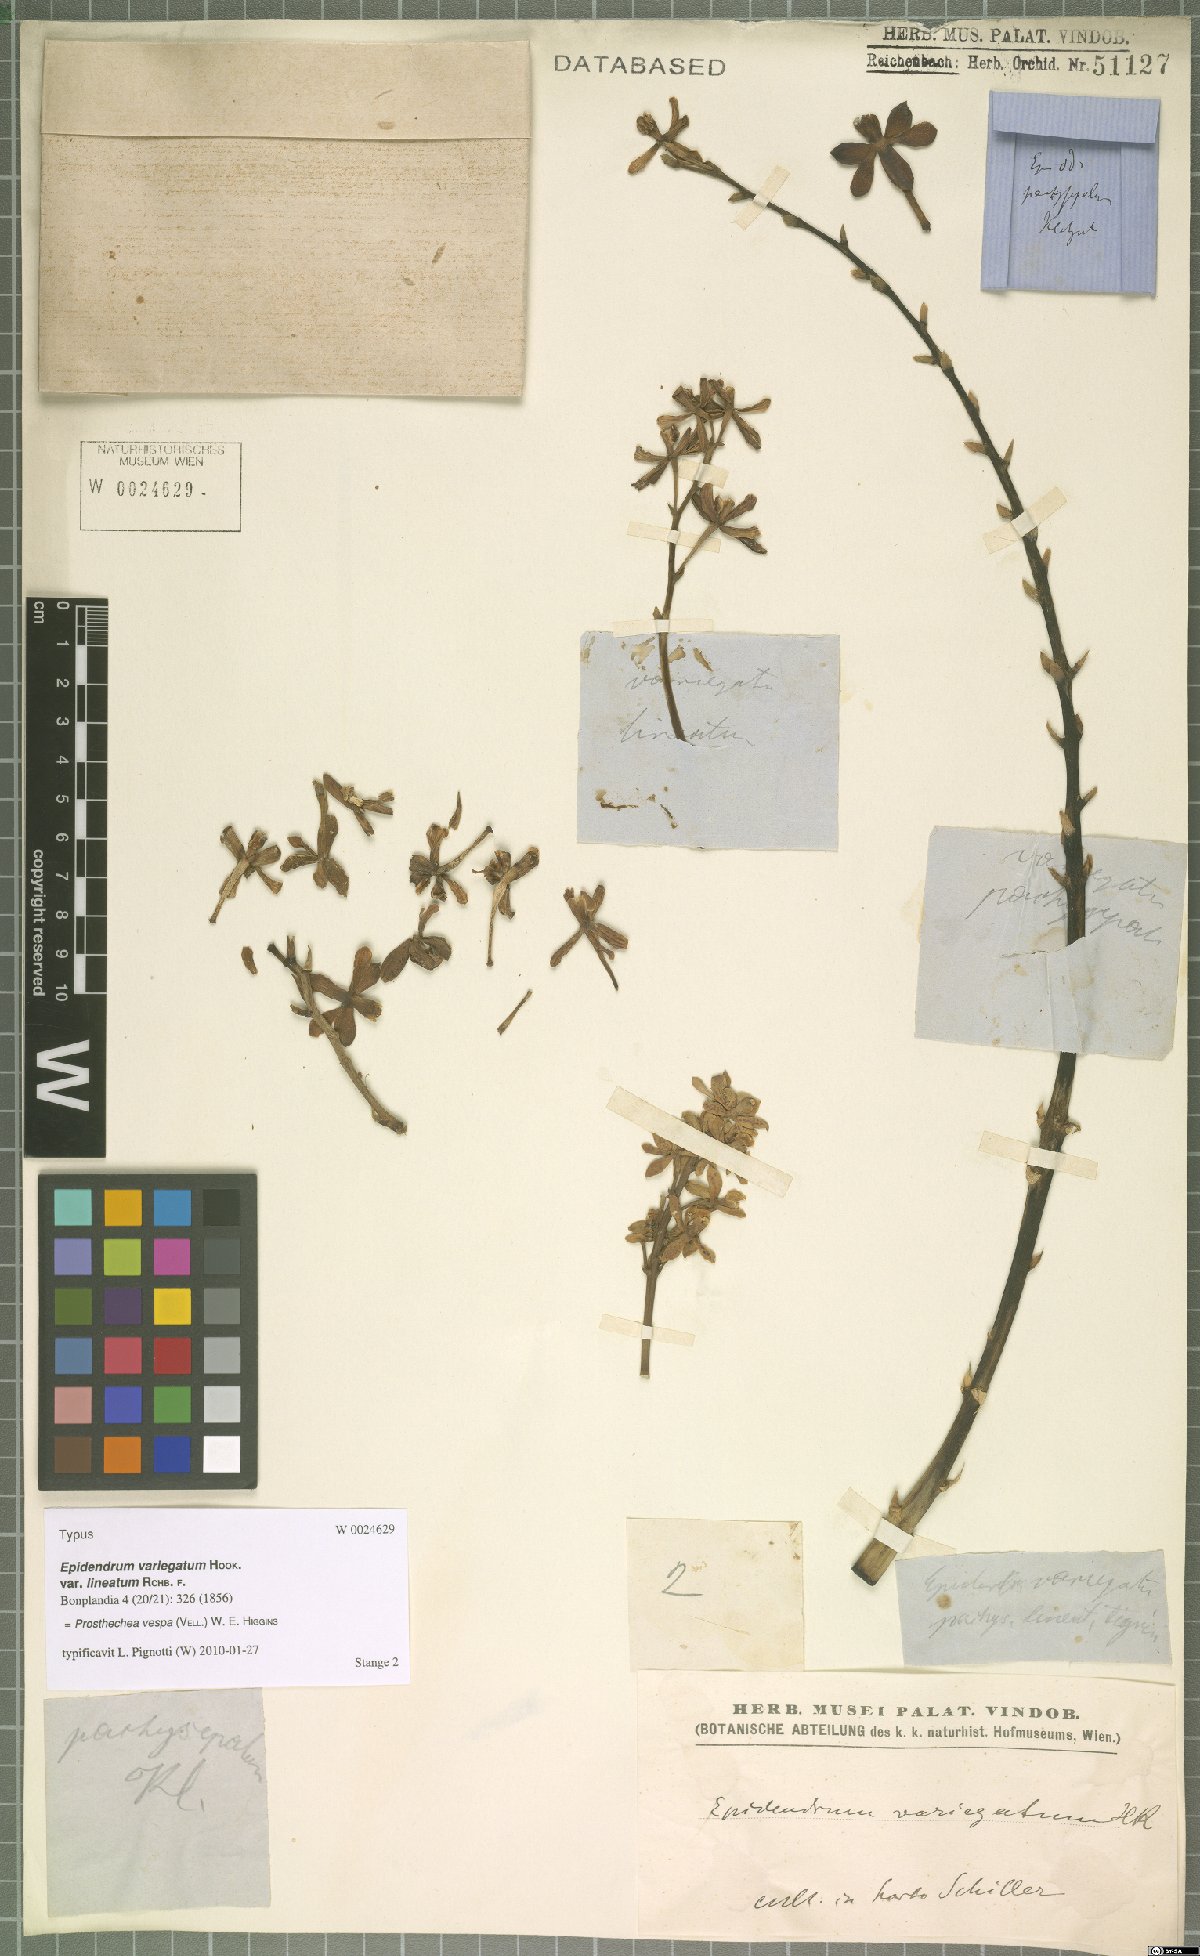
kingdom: Plantae
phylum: Tracheophyta
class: Liliopsida
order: Asparagales
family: Orchidaceae
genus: Prosthechea
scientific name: Prosthechea vespa
